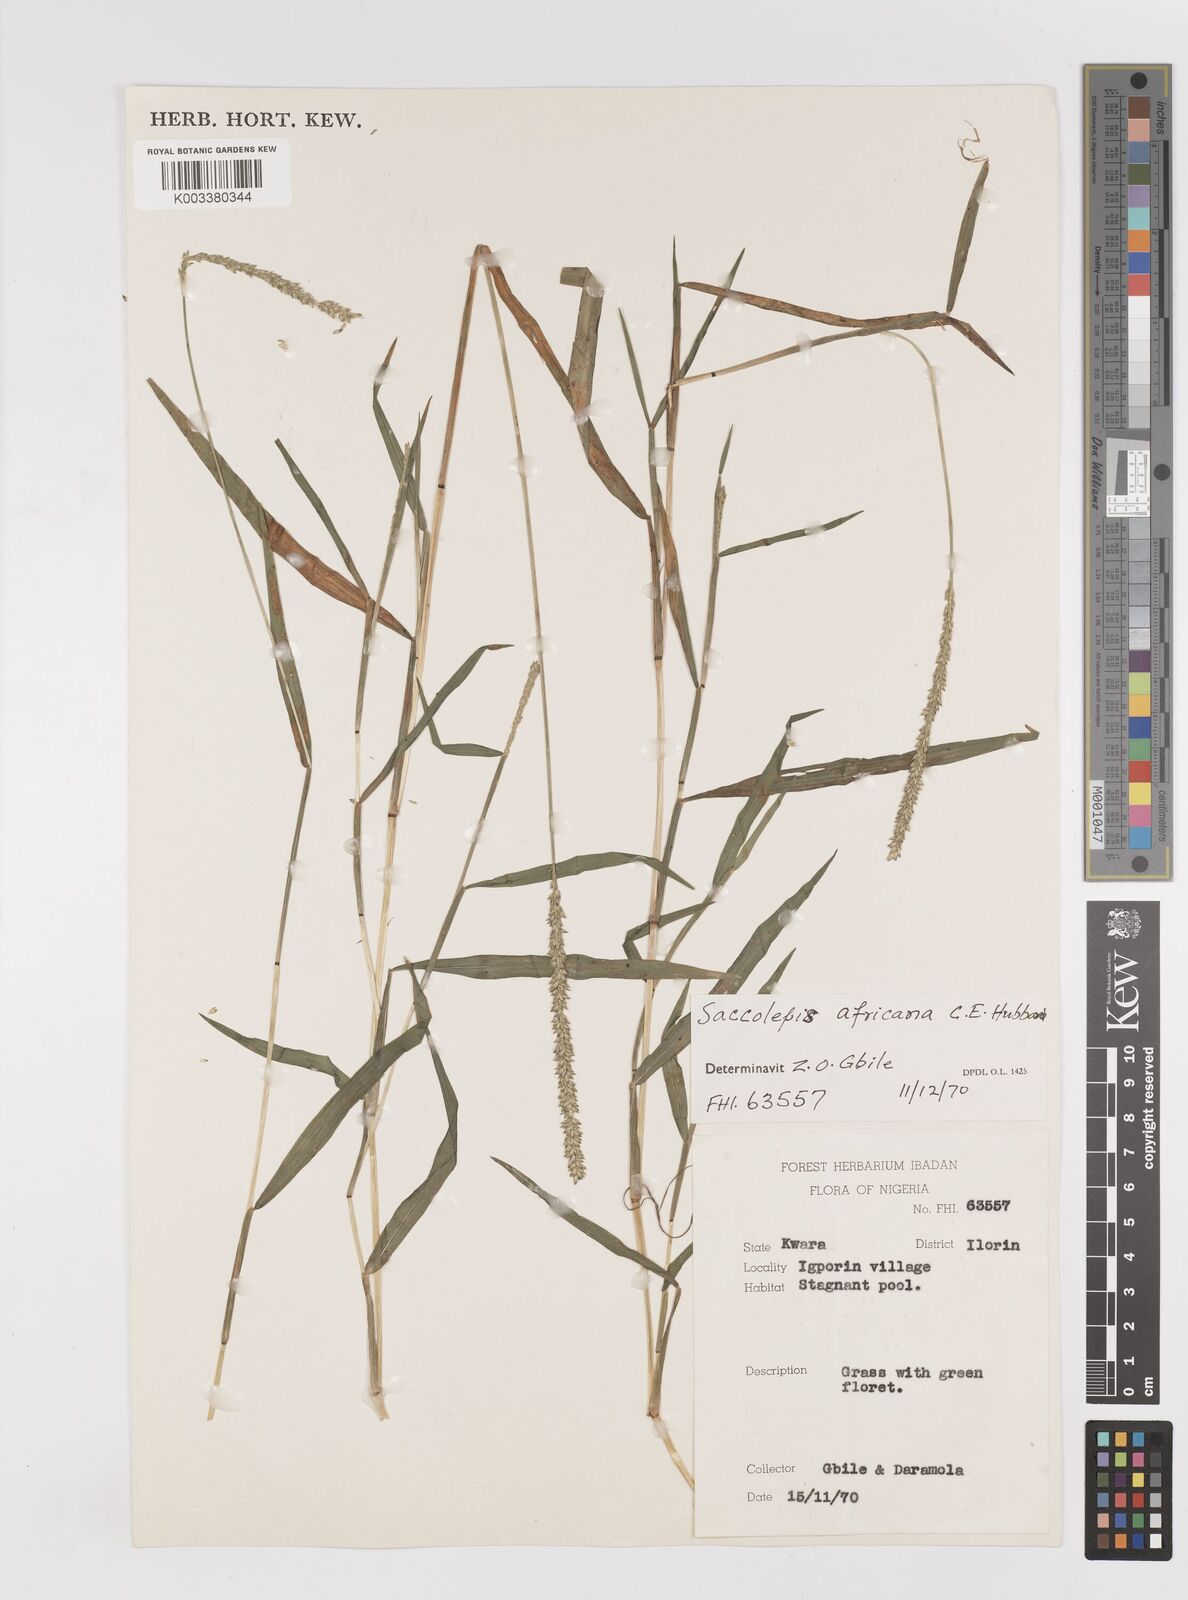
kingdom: Plantae
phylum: Tracheophyta
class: Liliopsida
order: Poales
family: Poaceae
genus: Sacciolepis
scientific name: Sacciolepis africana
